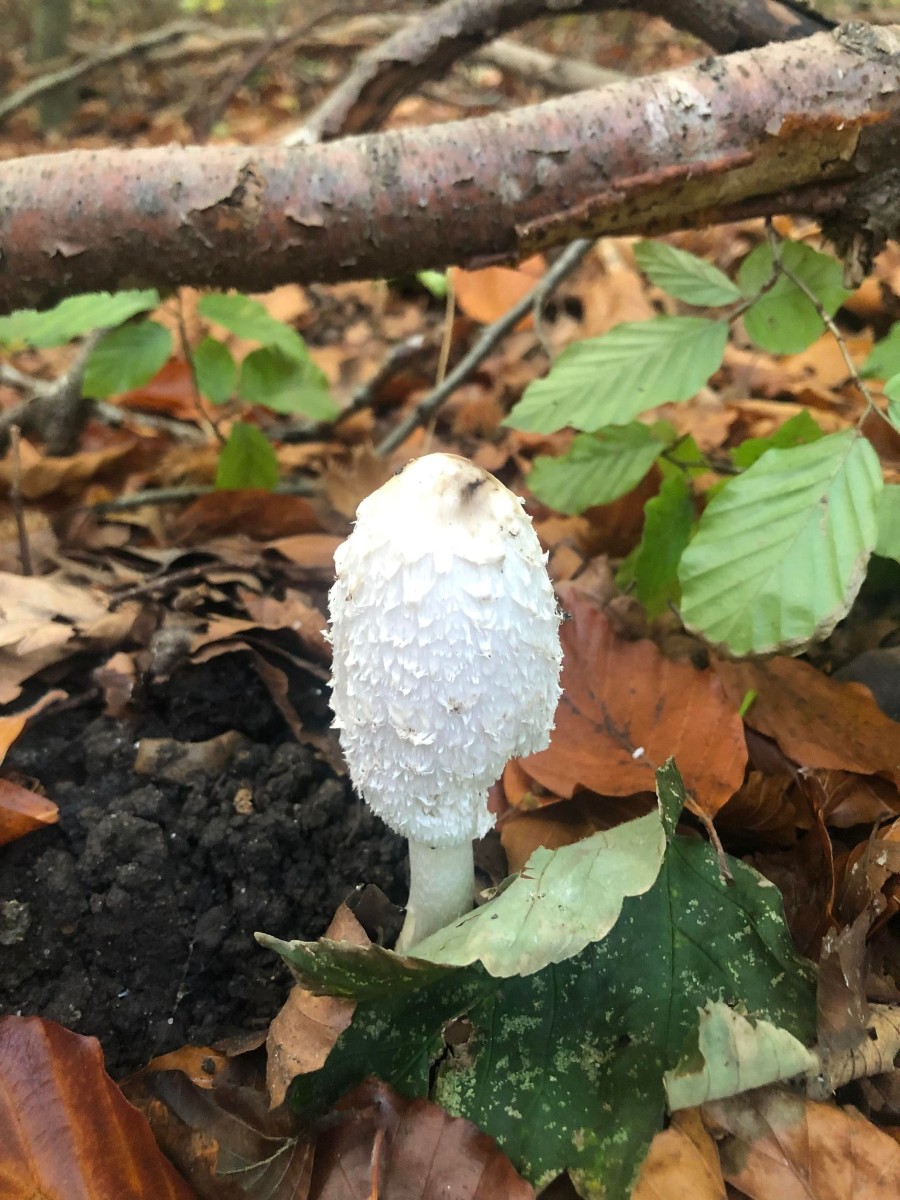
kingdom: Fungi
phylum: Basidiomycota
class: Agaricomycetes
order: Agaricales
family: Agaricaceae
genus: Coprinus
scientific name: Coprinus comatus
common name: stor parykhat
